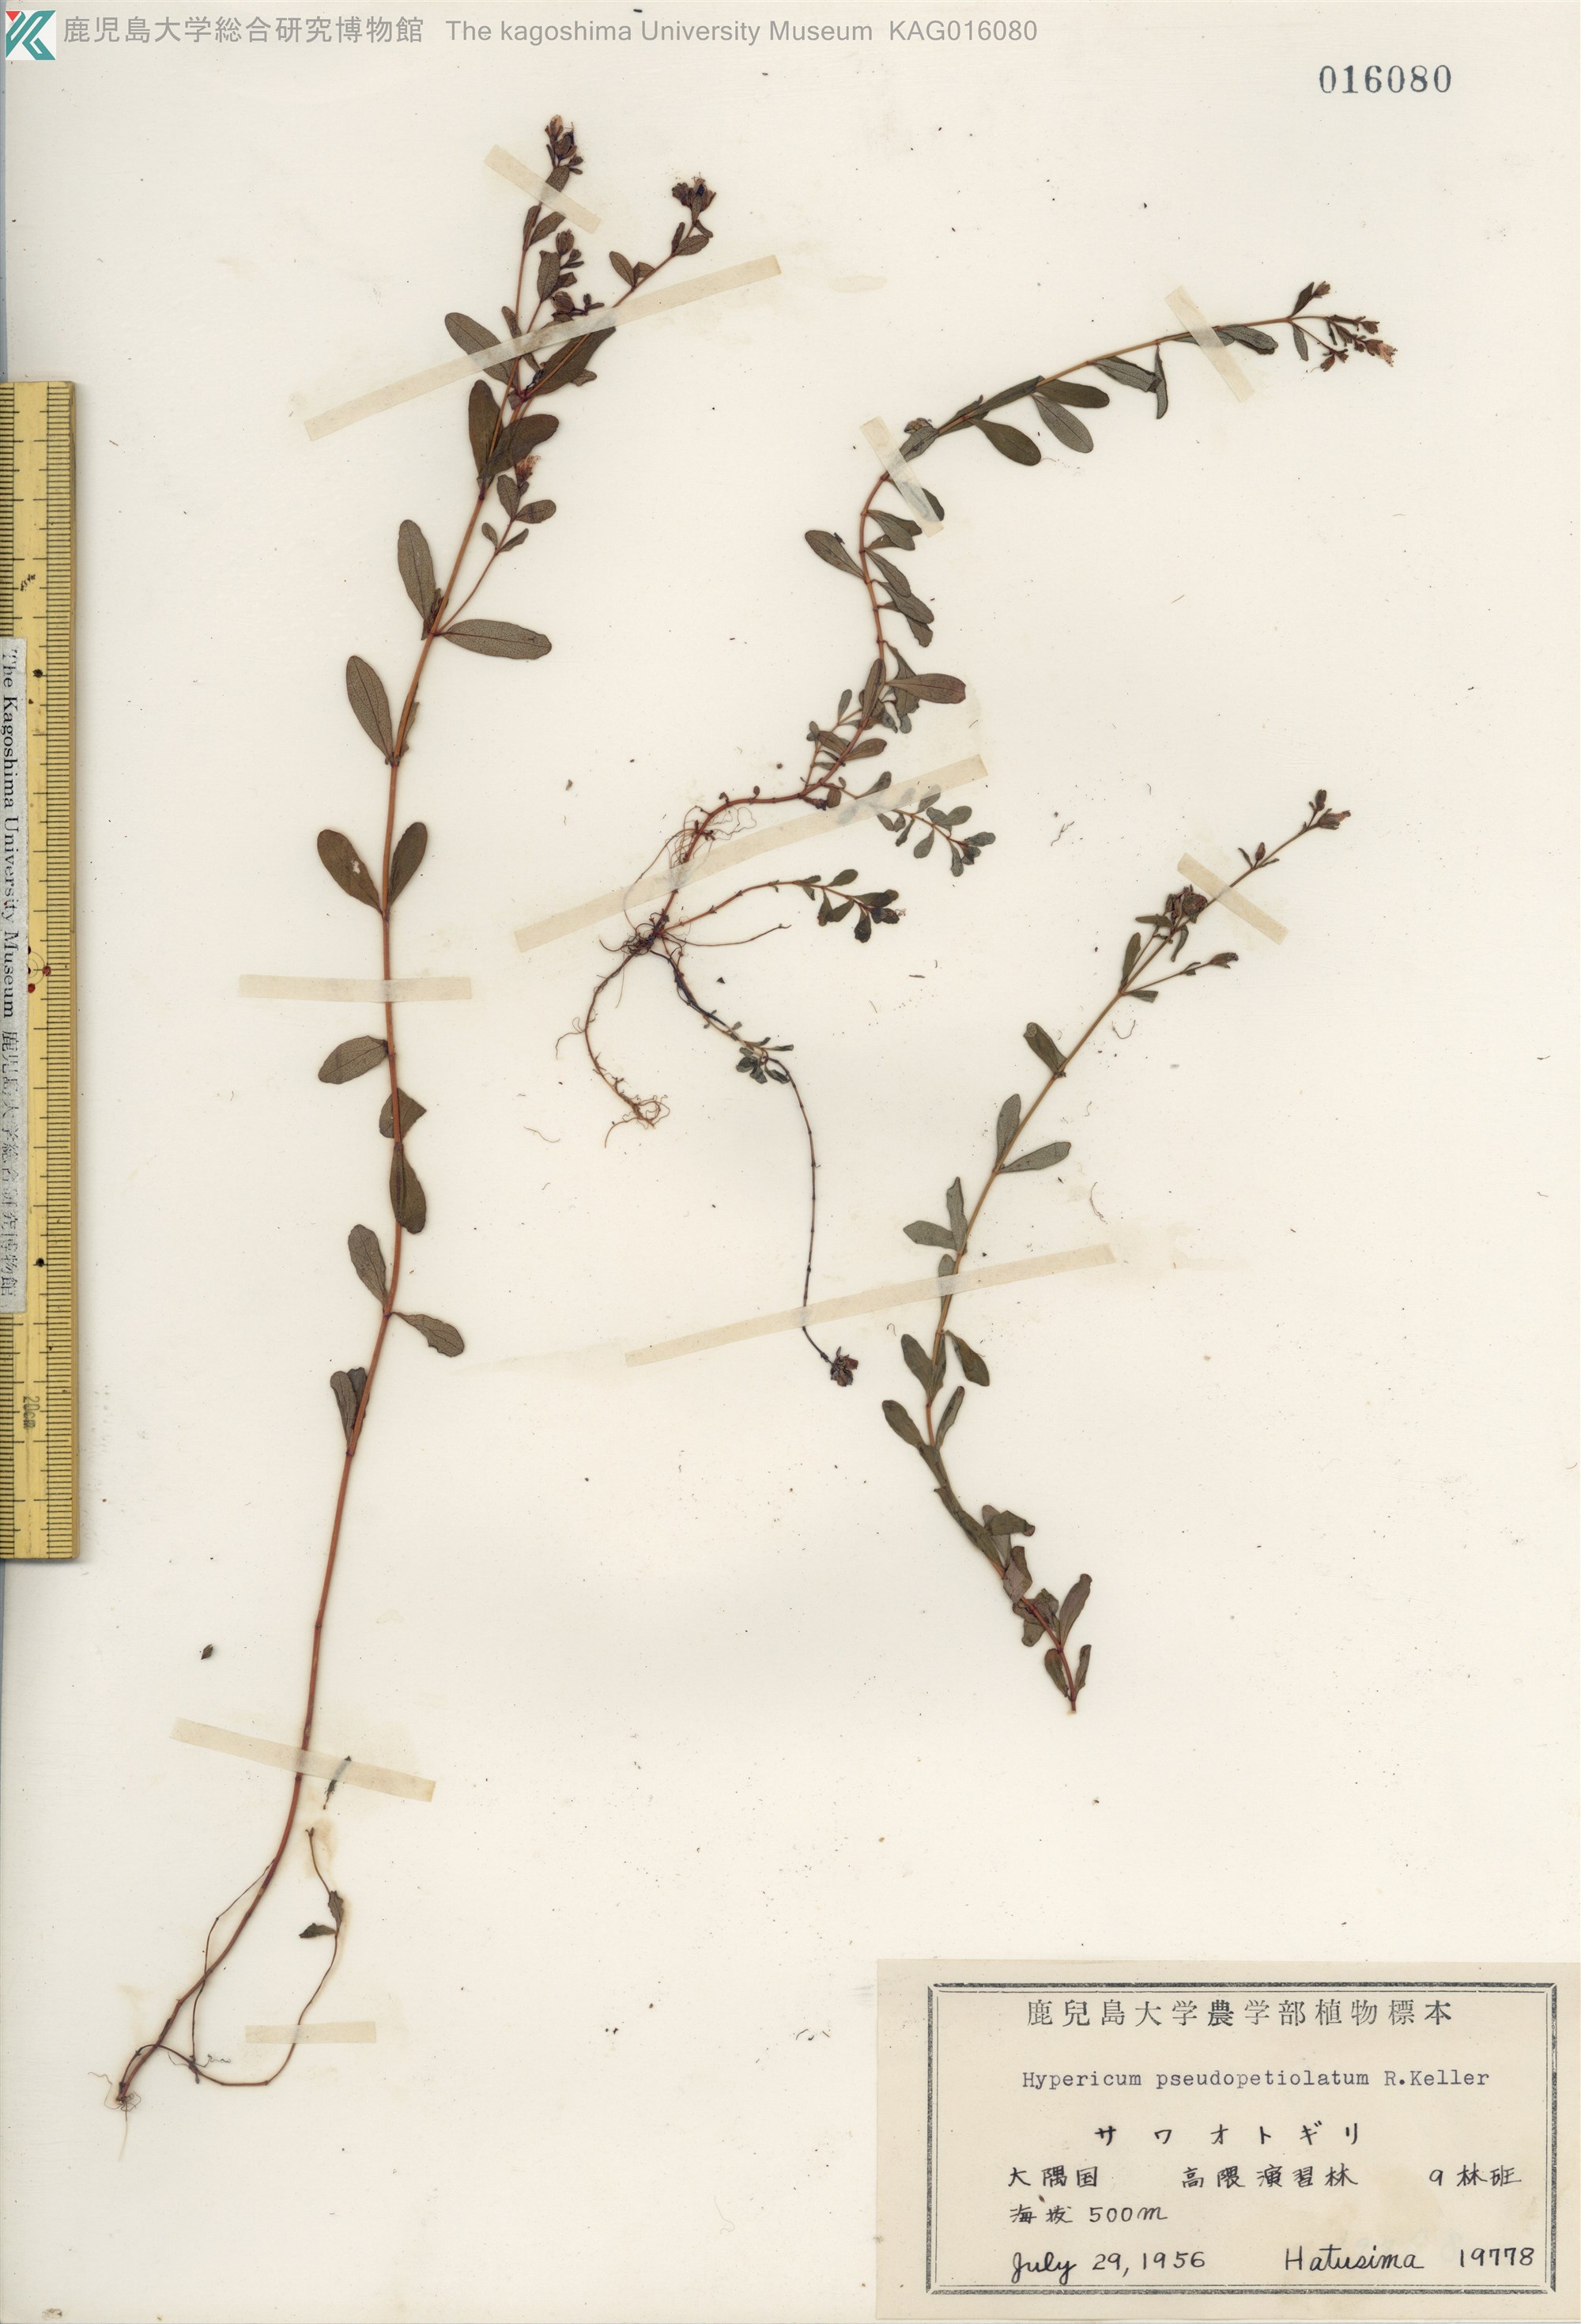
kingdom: Plantae
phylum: Tracheophyta
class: Magnoliopsida
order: Malpighiales
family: Hypericaceae
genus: Hypericum
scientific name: Hypericum pseudopetiolatum
